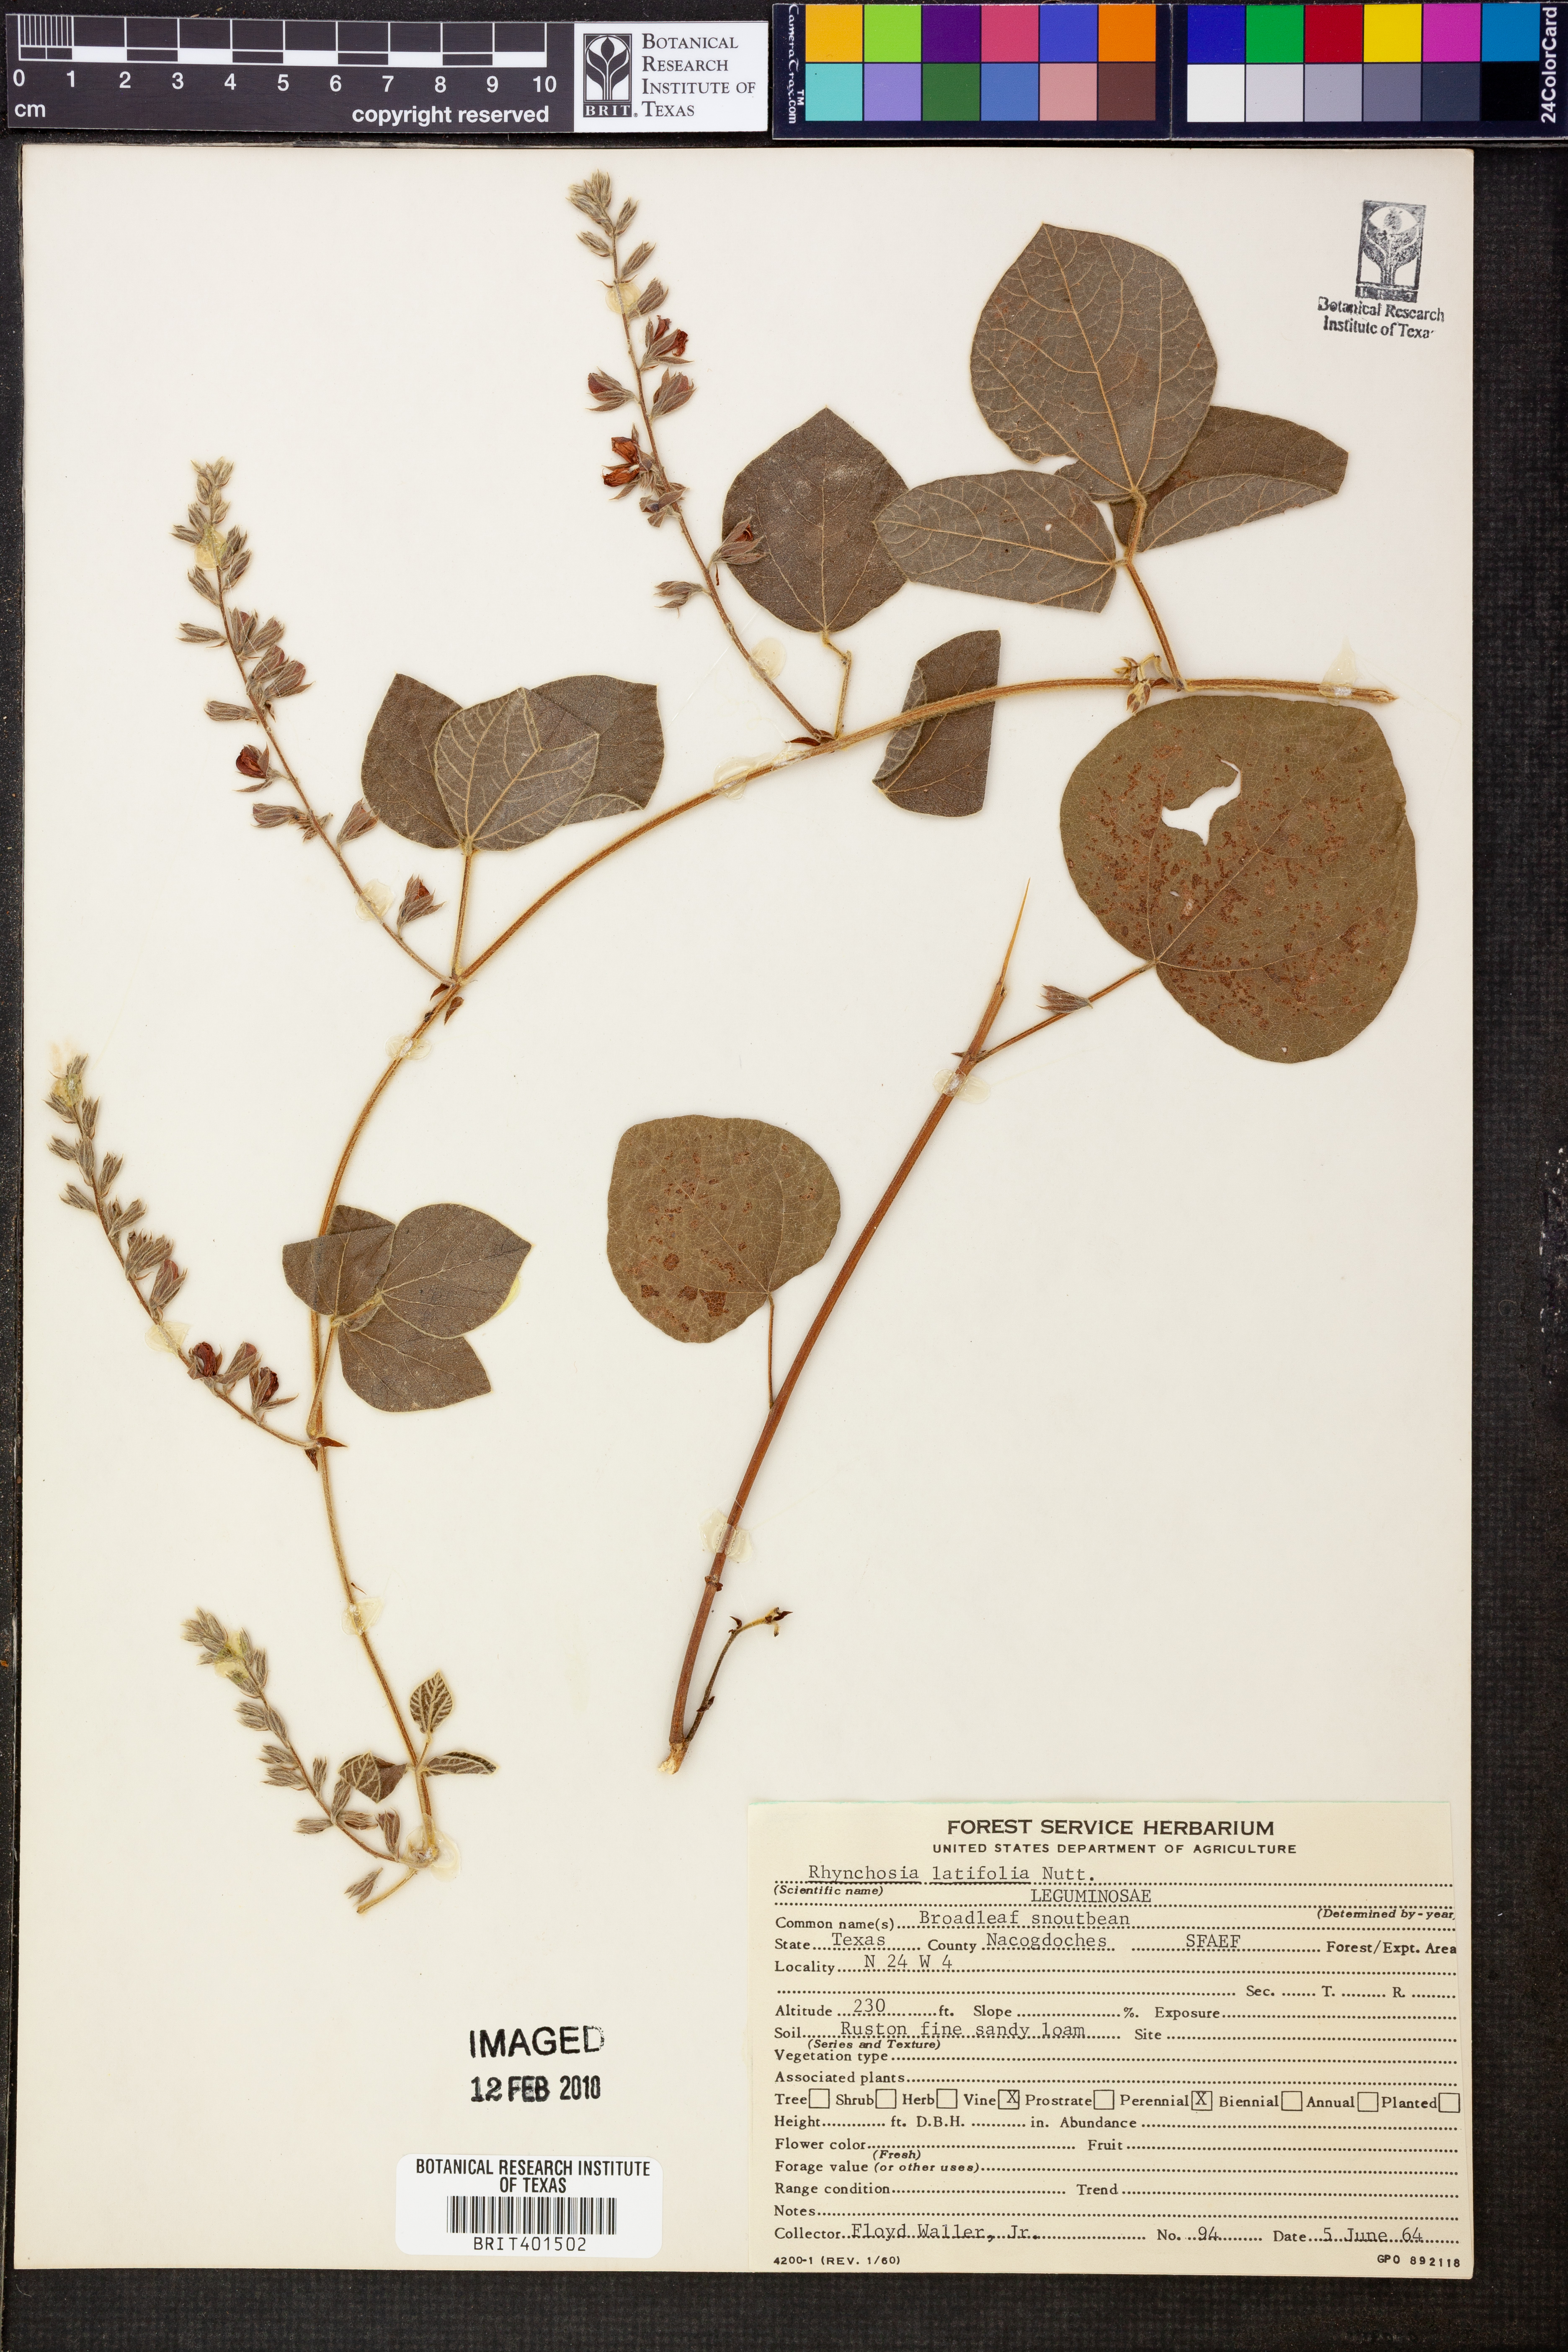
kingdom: Plantae
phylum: Tracheophyta
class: Magnoliopsida
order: Fabales
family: Fabaceae
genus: Rhynchosia
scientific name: Rhynchosia latifolia
